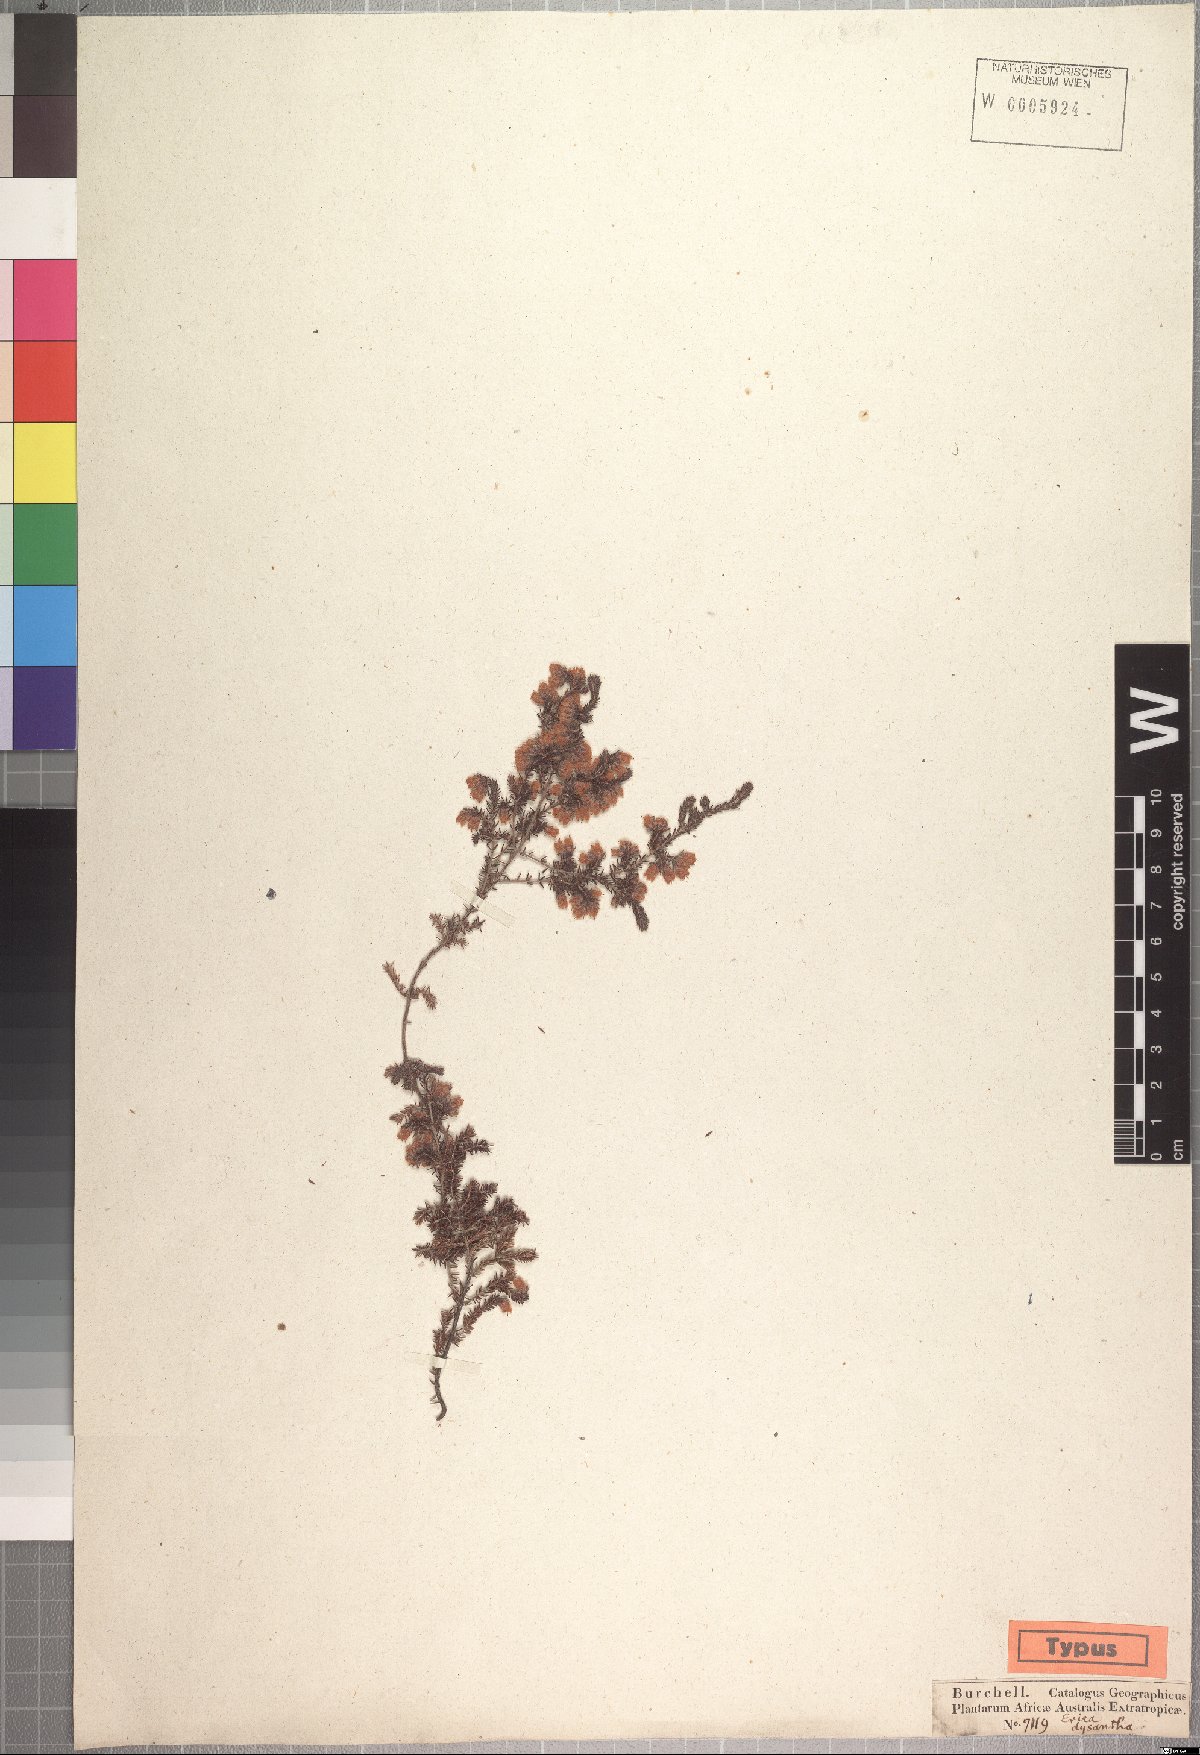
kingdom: Plantae
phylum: Tracheophyta
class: Magnoliopsida
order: Ericales
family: Ericaceae
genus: Erica
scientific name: Erica dysantha
